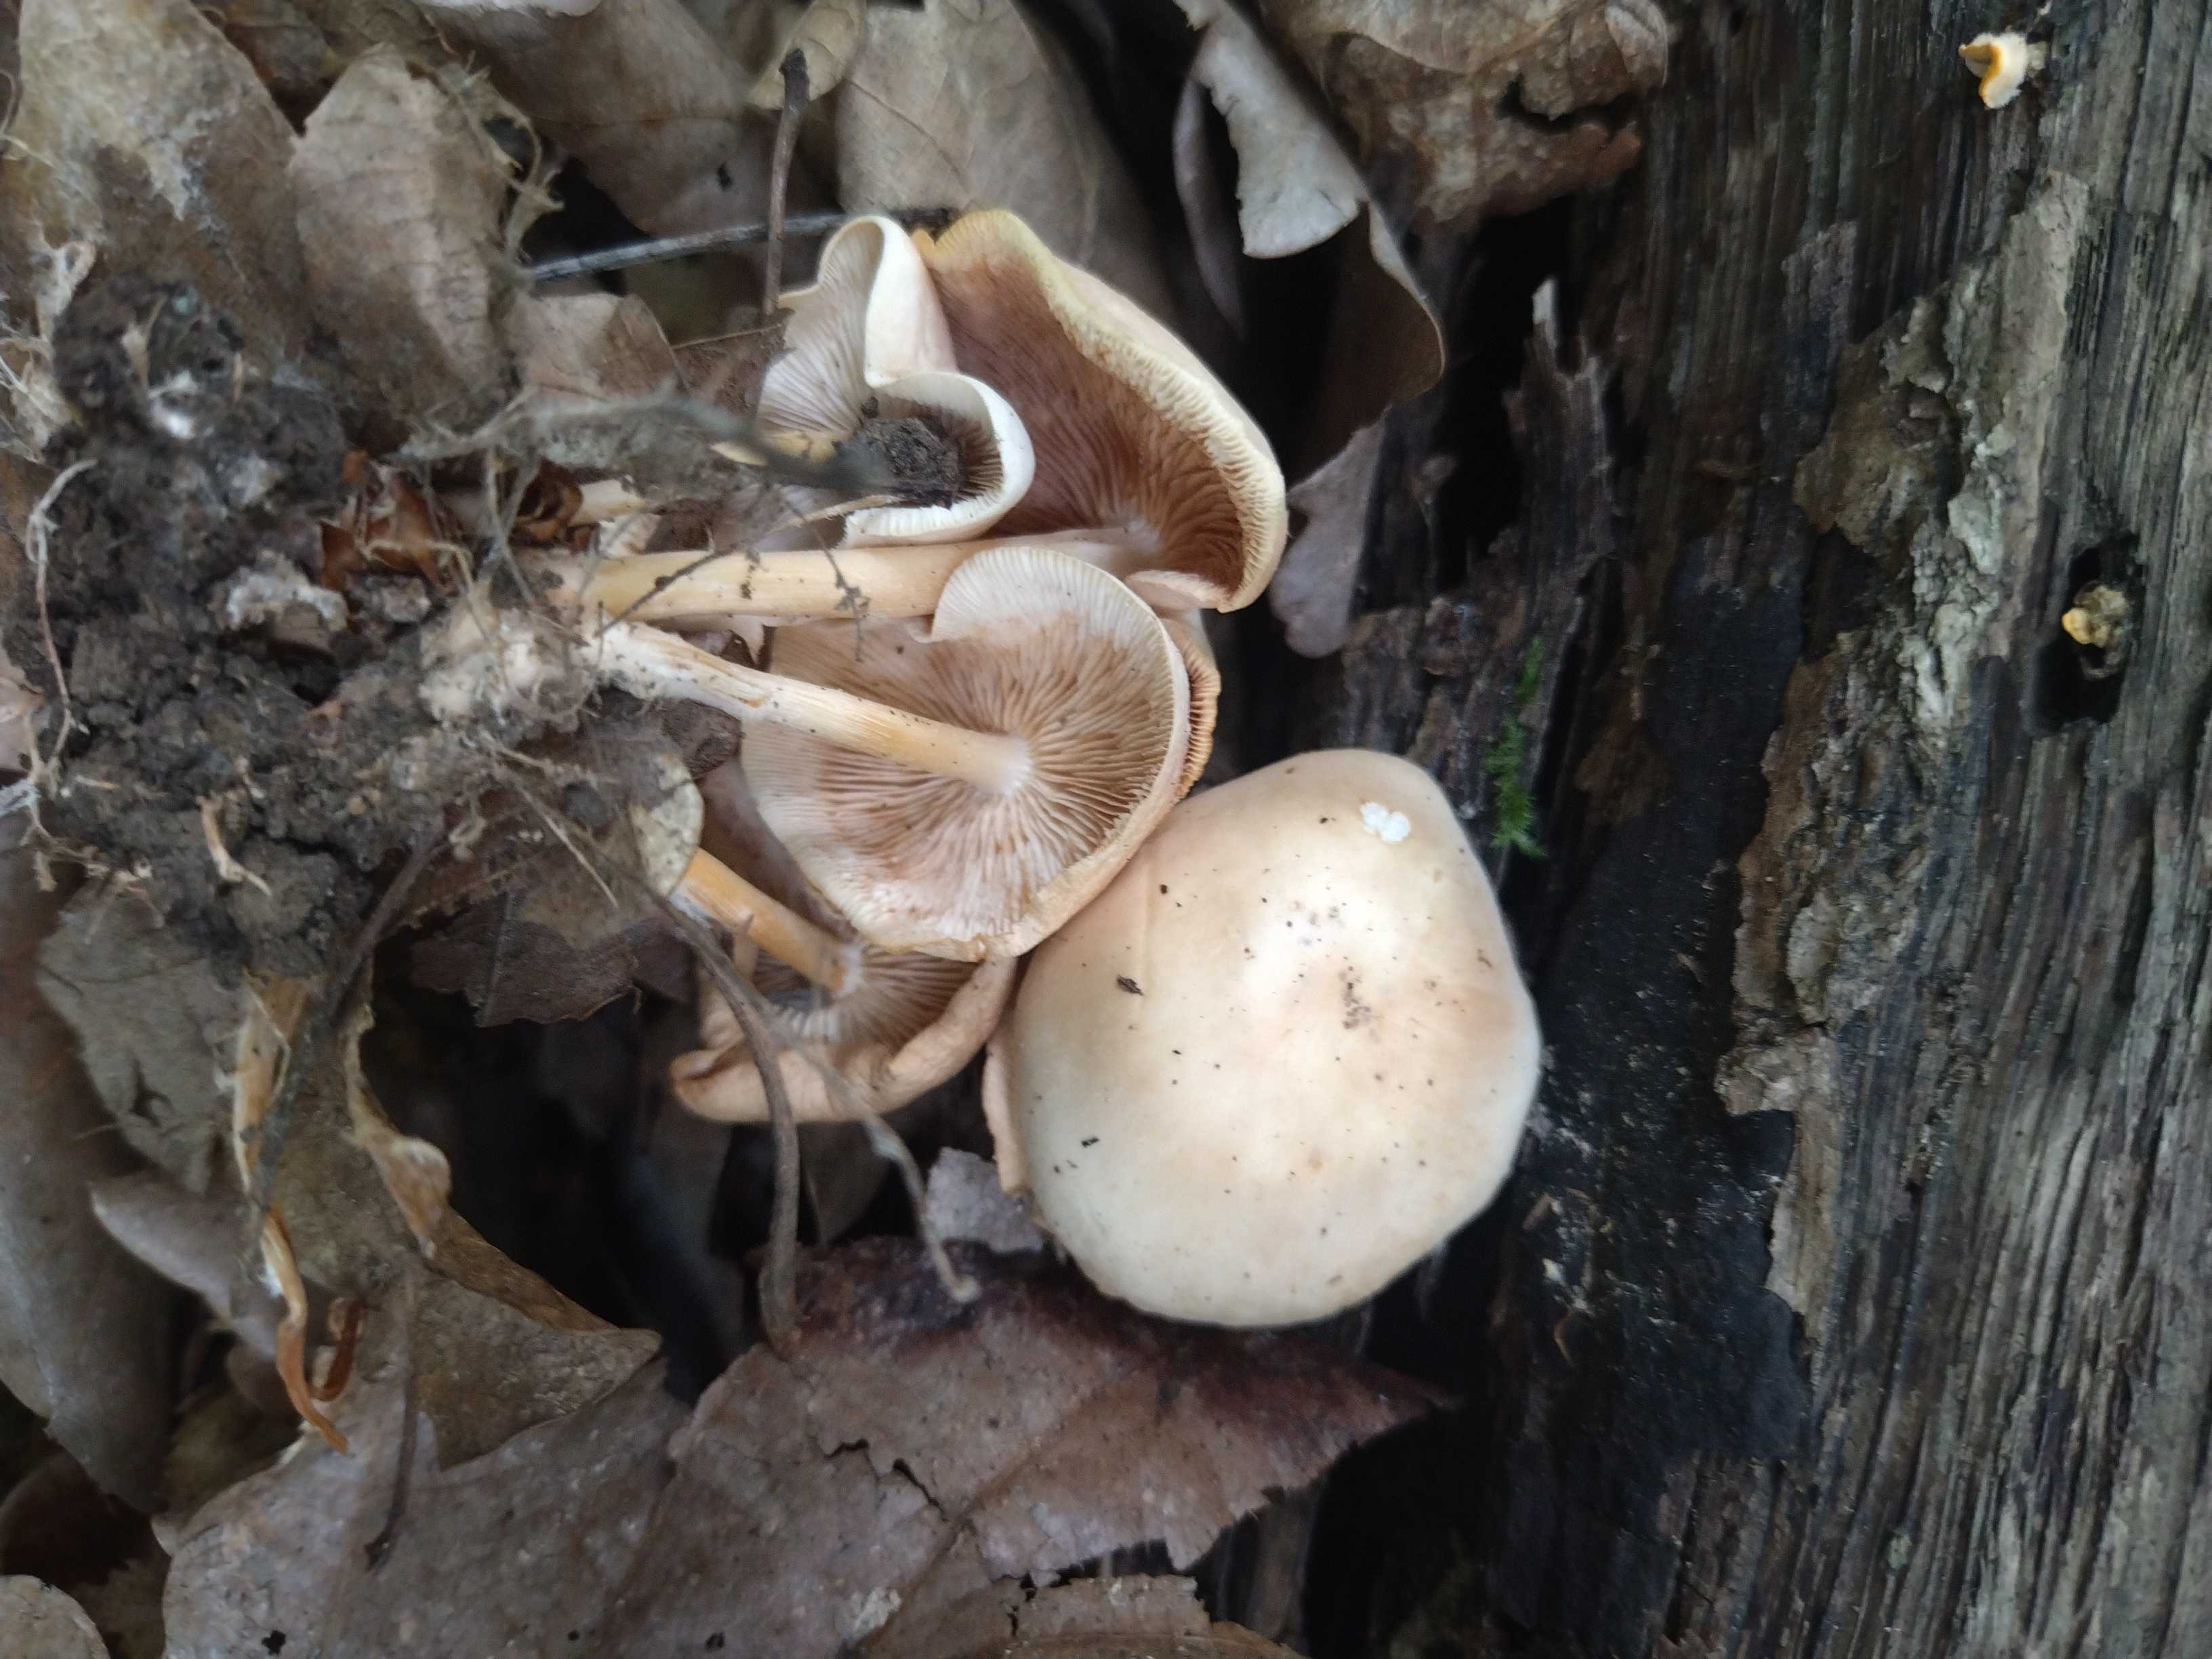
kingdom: Fungi
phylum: Basidiomycota
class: Agaricomycetes
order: Agaricales
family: Omphalotaceae
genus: Gymnopus
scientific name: Gymnopus
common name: fladhat
